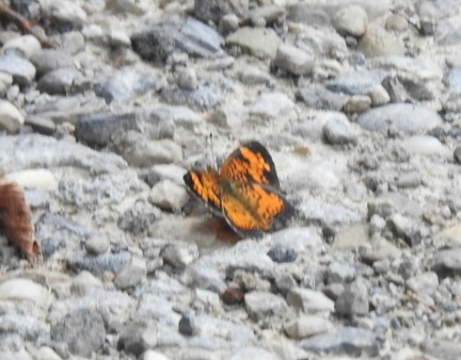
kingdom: Animalia
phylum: Arthropoda
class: Insecta
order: Lepidoptera
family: Nymphalidae
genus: Phyciodes
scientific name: Phyciodes tharos
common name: Pearl Crescent
